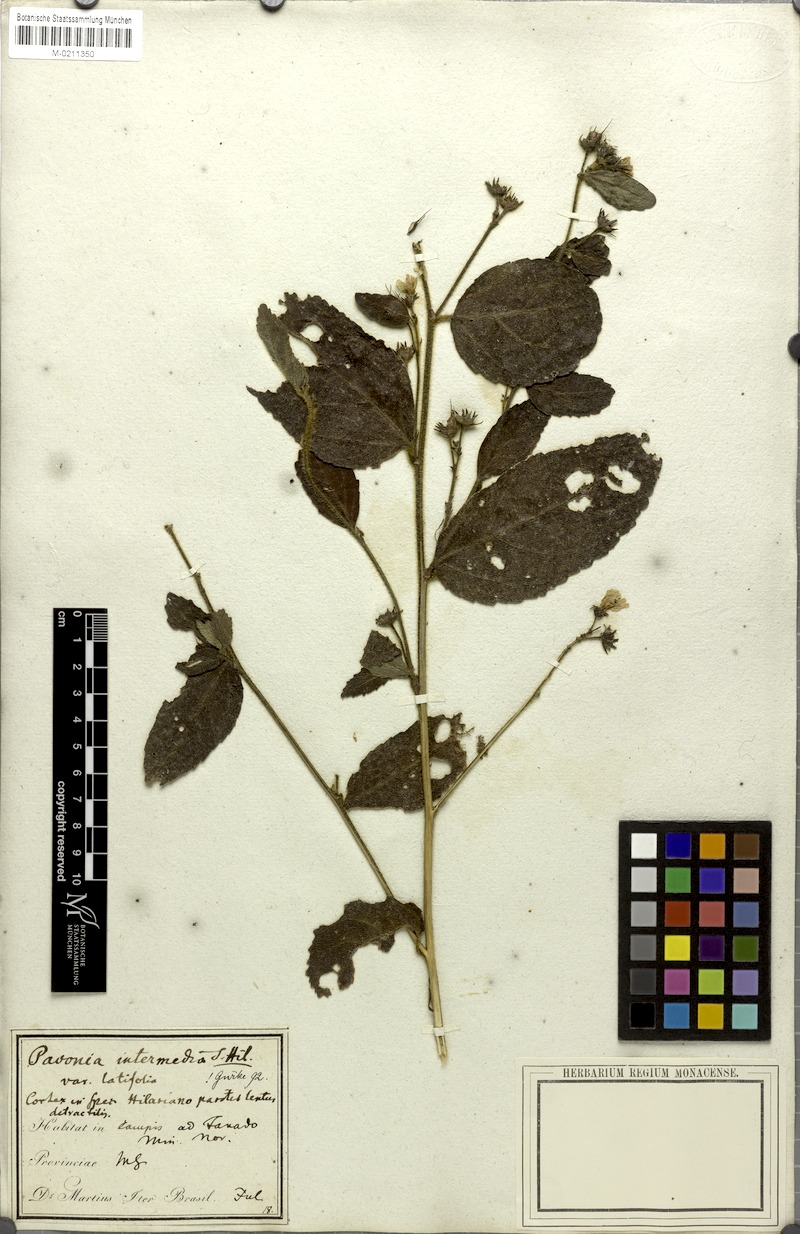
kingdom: Plantae
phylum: Tracheophyta
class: Magnoliopsida
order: Malvales
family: Malvaceae
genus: Pavonia
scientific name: Pavonia intermedia
